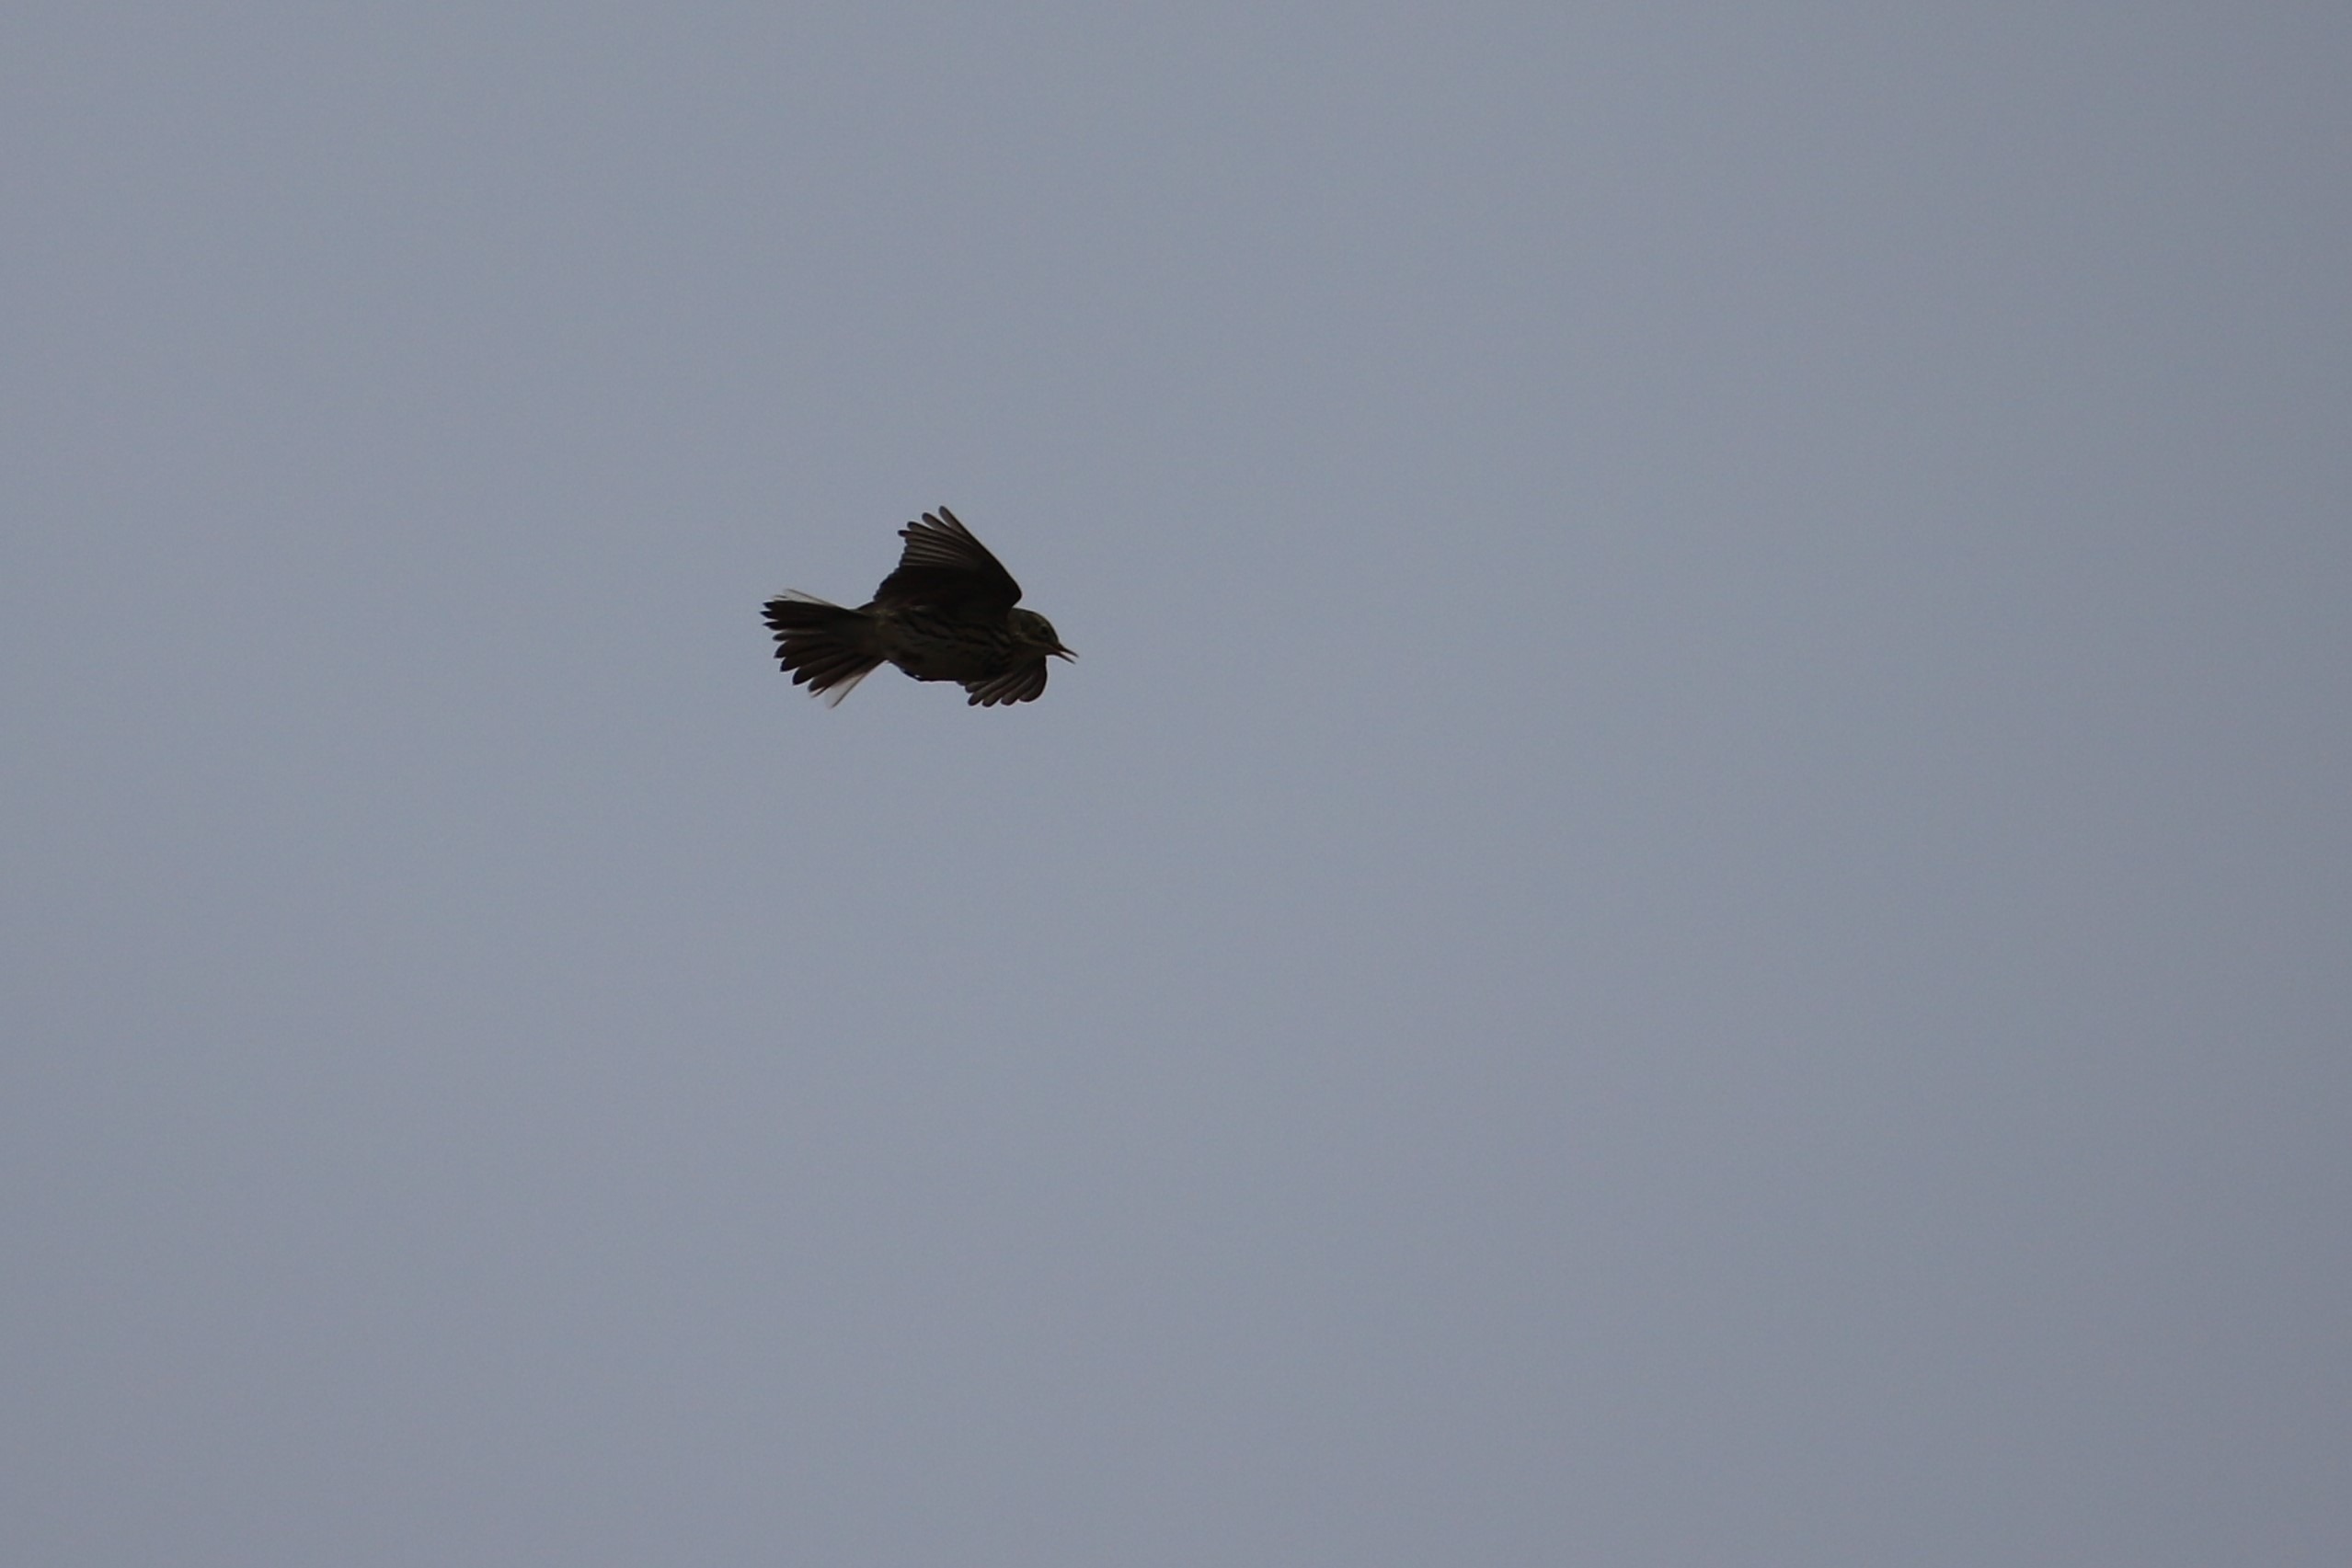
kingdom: Animalia
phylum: Chordata
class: Aves
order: Passeriformes
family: Motacillidae
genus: Anthus
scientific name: Anthus pratensis
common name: Engpiber
